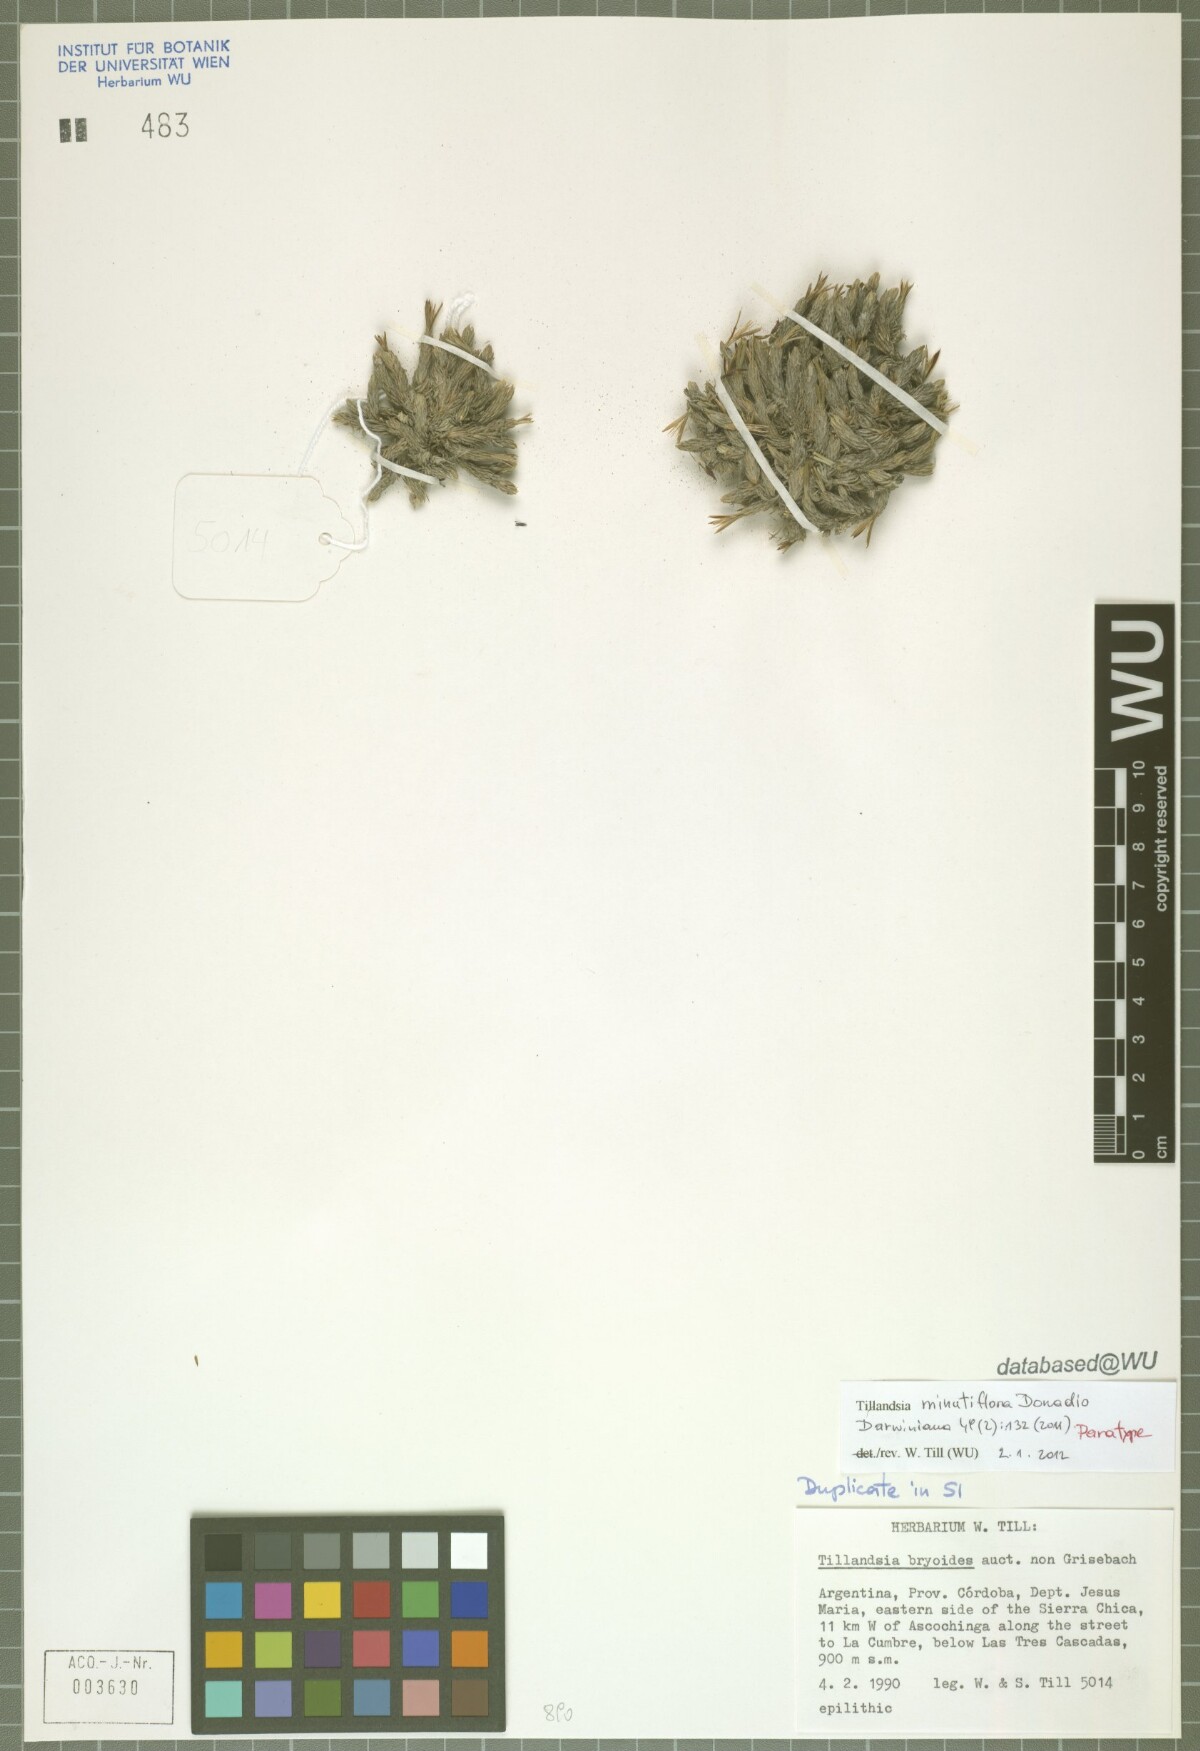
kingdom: Plantae
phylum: Tracheophyta
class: Liliopsida
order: Poales
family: Bromeliaceae
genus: Tillandsia
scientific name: Tillandsia minutiflora
